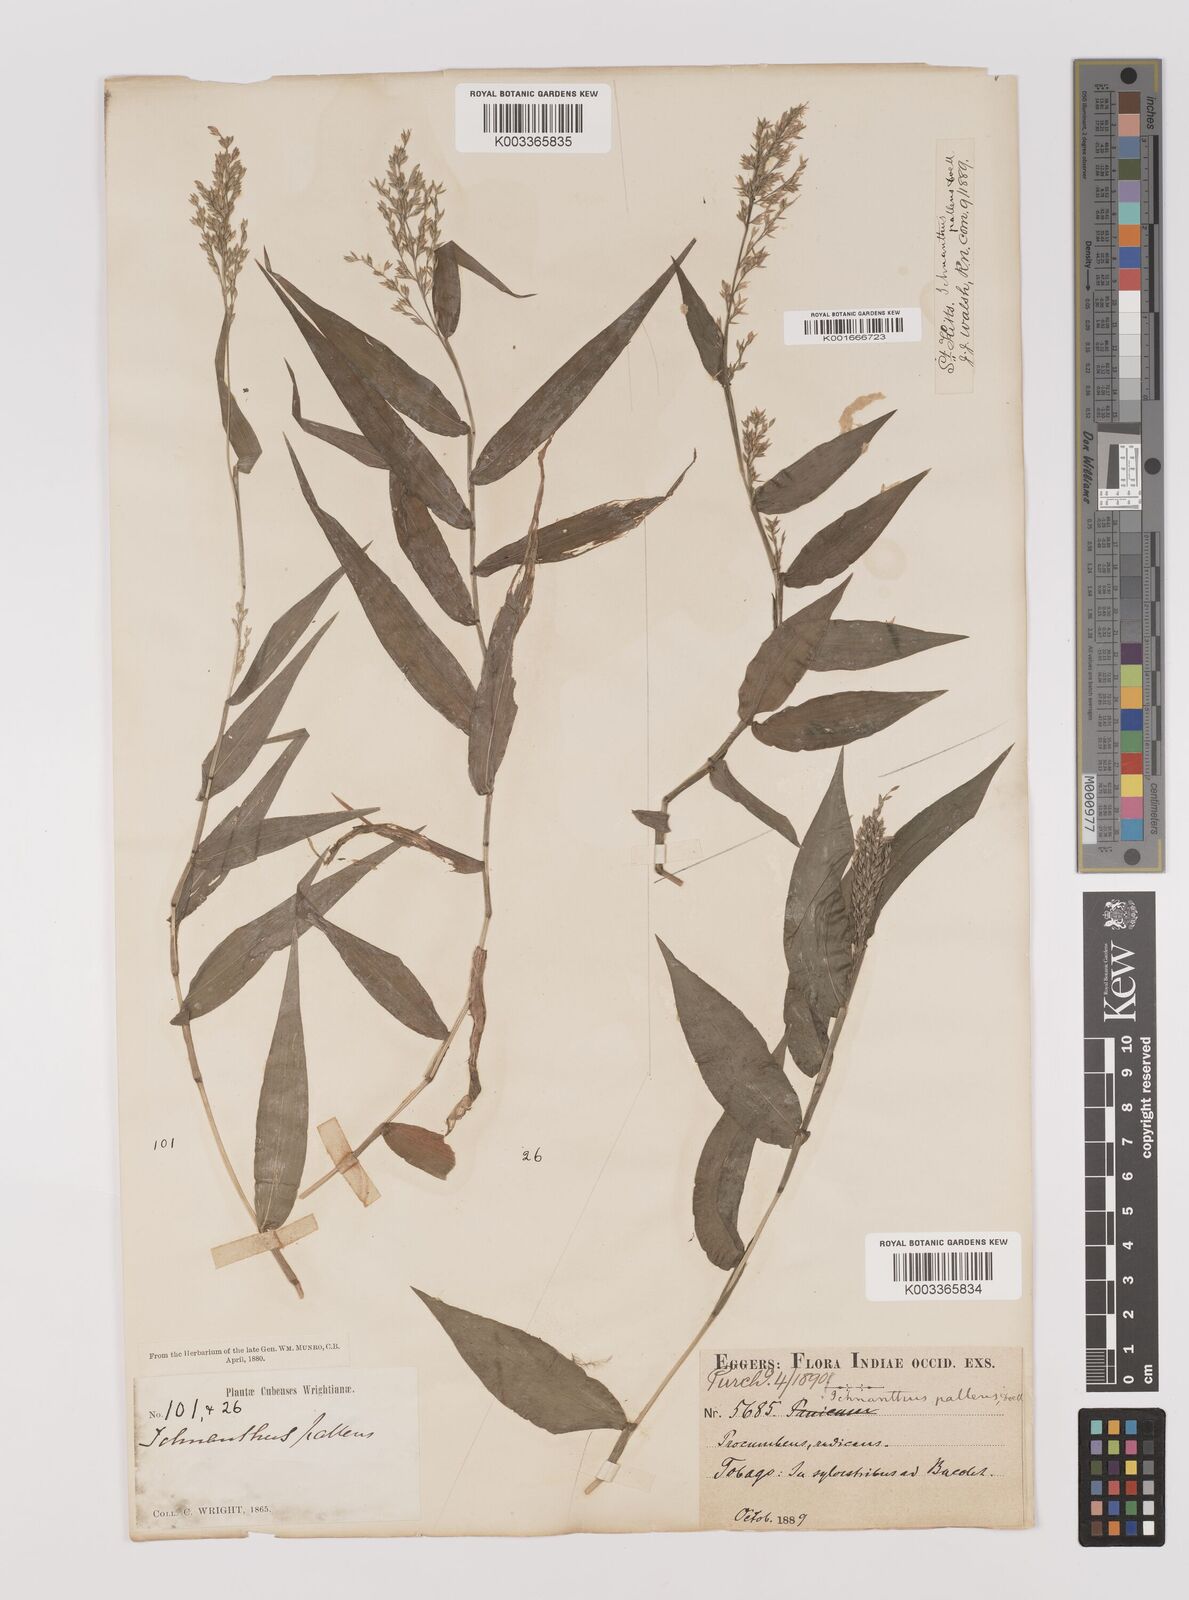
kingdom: Plantae
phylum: Tracheophyta
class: Liliopsida
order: Poales
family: Poaceae
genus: Ichnanthus
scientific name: Ichnanthus pallens
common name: Water grass
